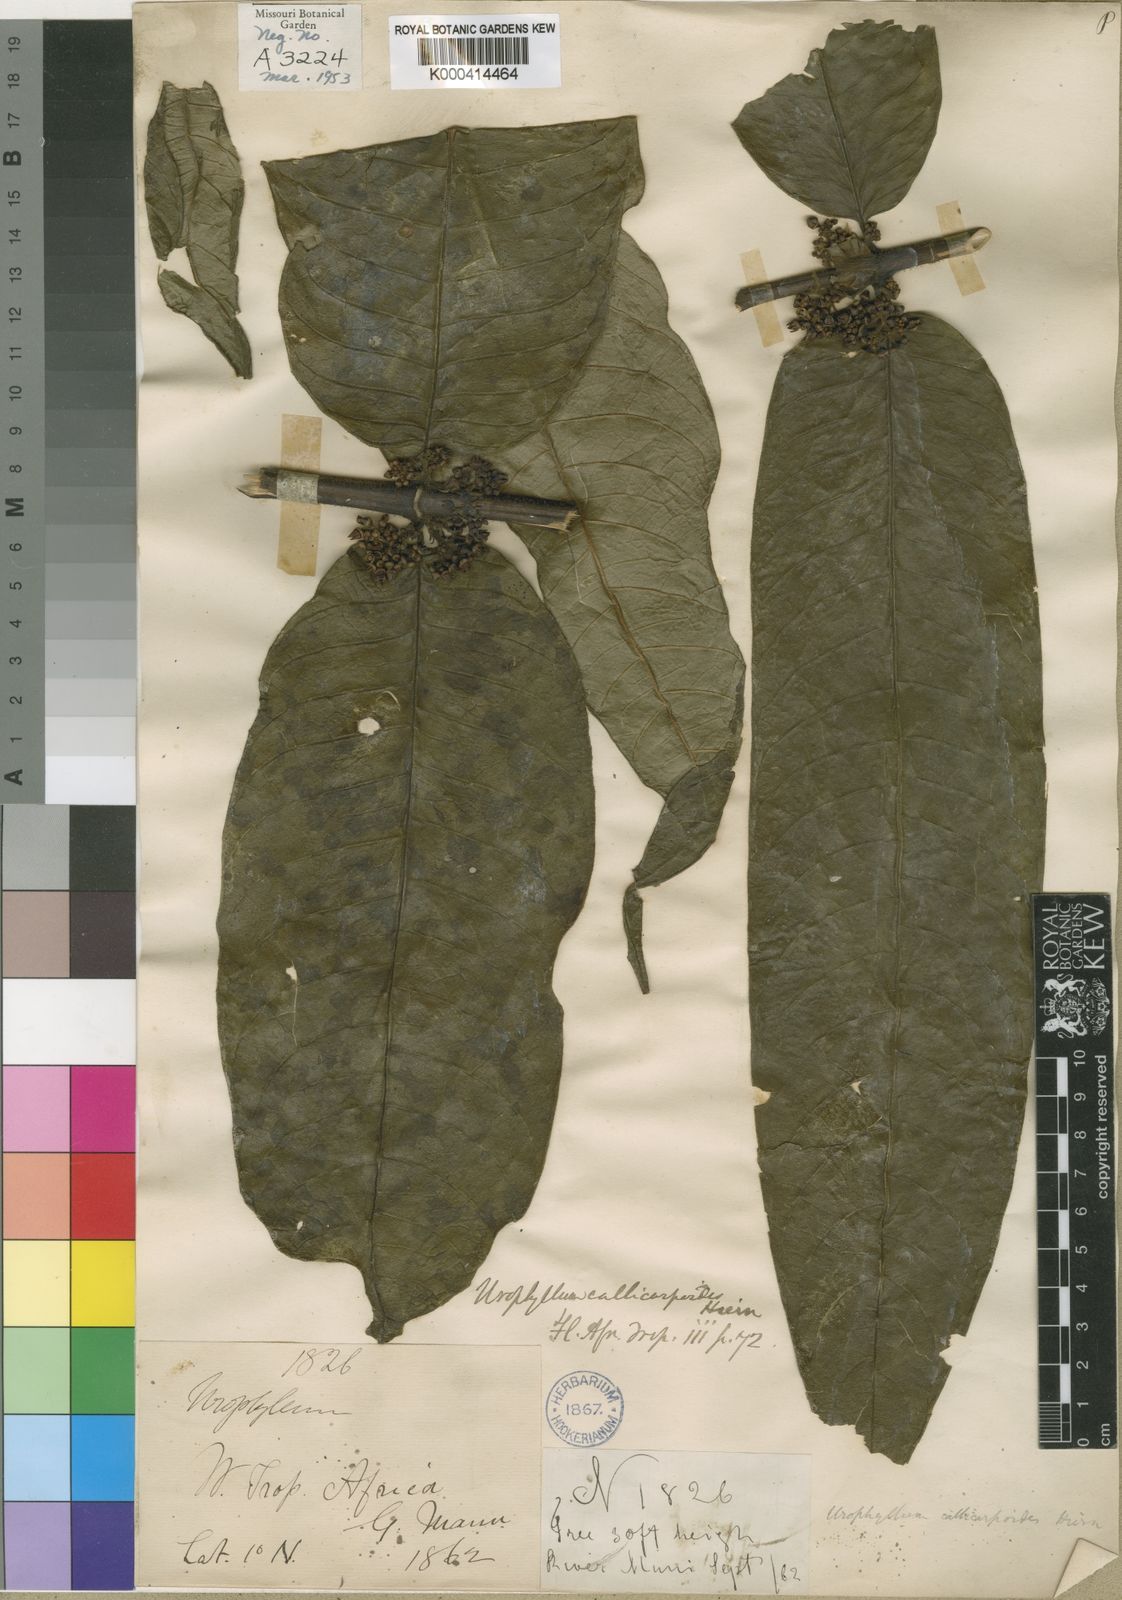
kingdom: Plantae
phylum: Tracheophyta
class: Magnoliopsida
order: Gentianales
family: Rubiaceae
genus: Pauridiantha
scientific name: Pauridiantha callicarpoides
